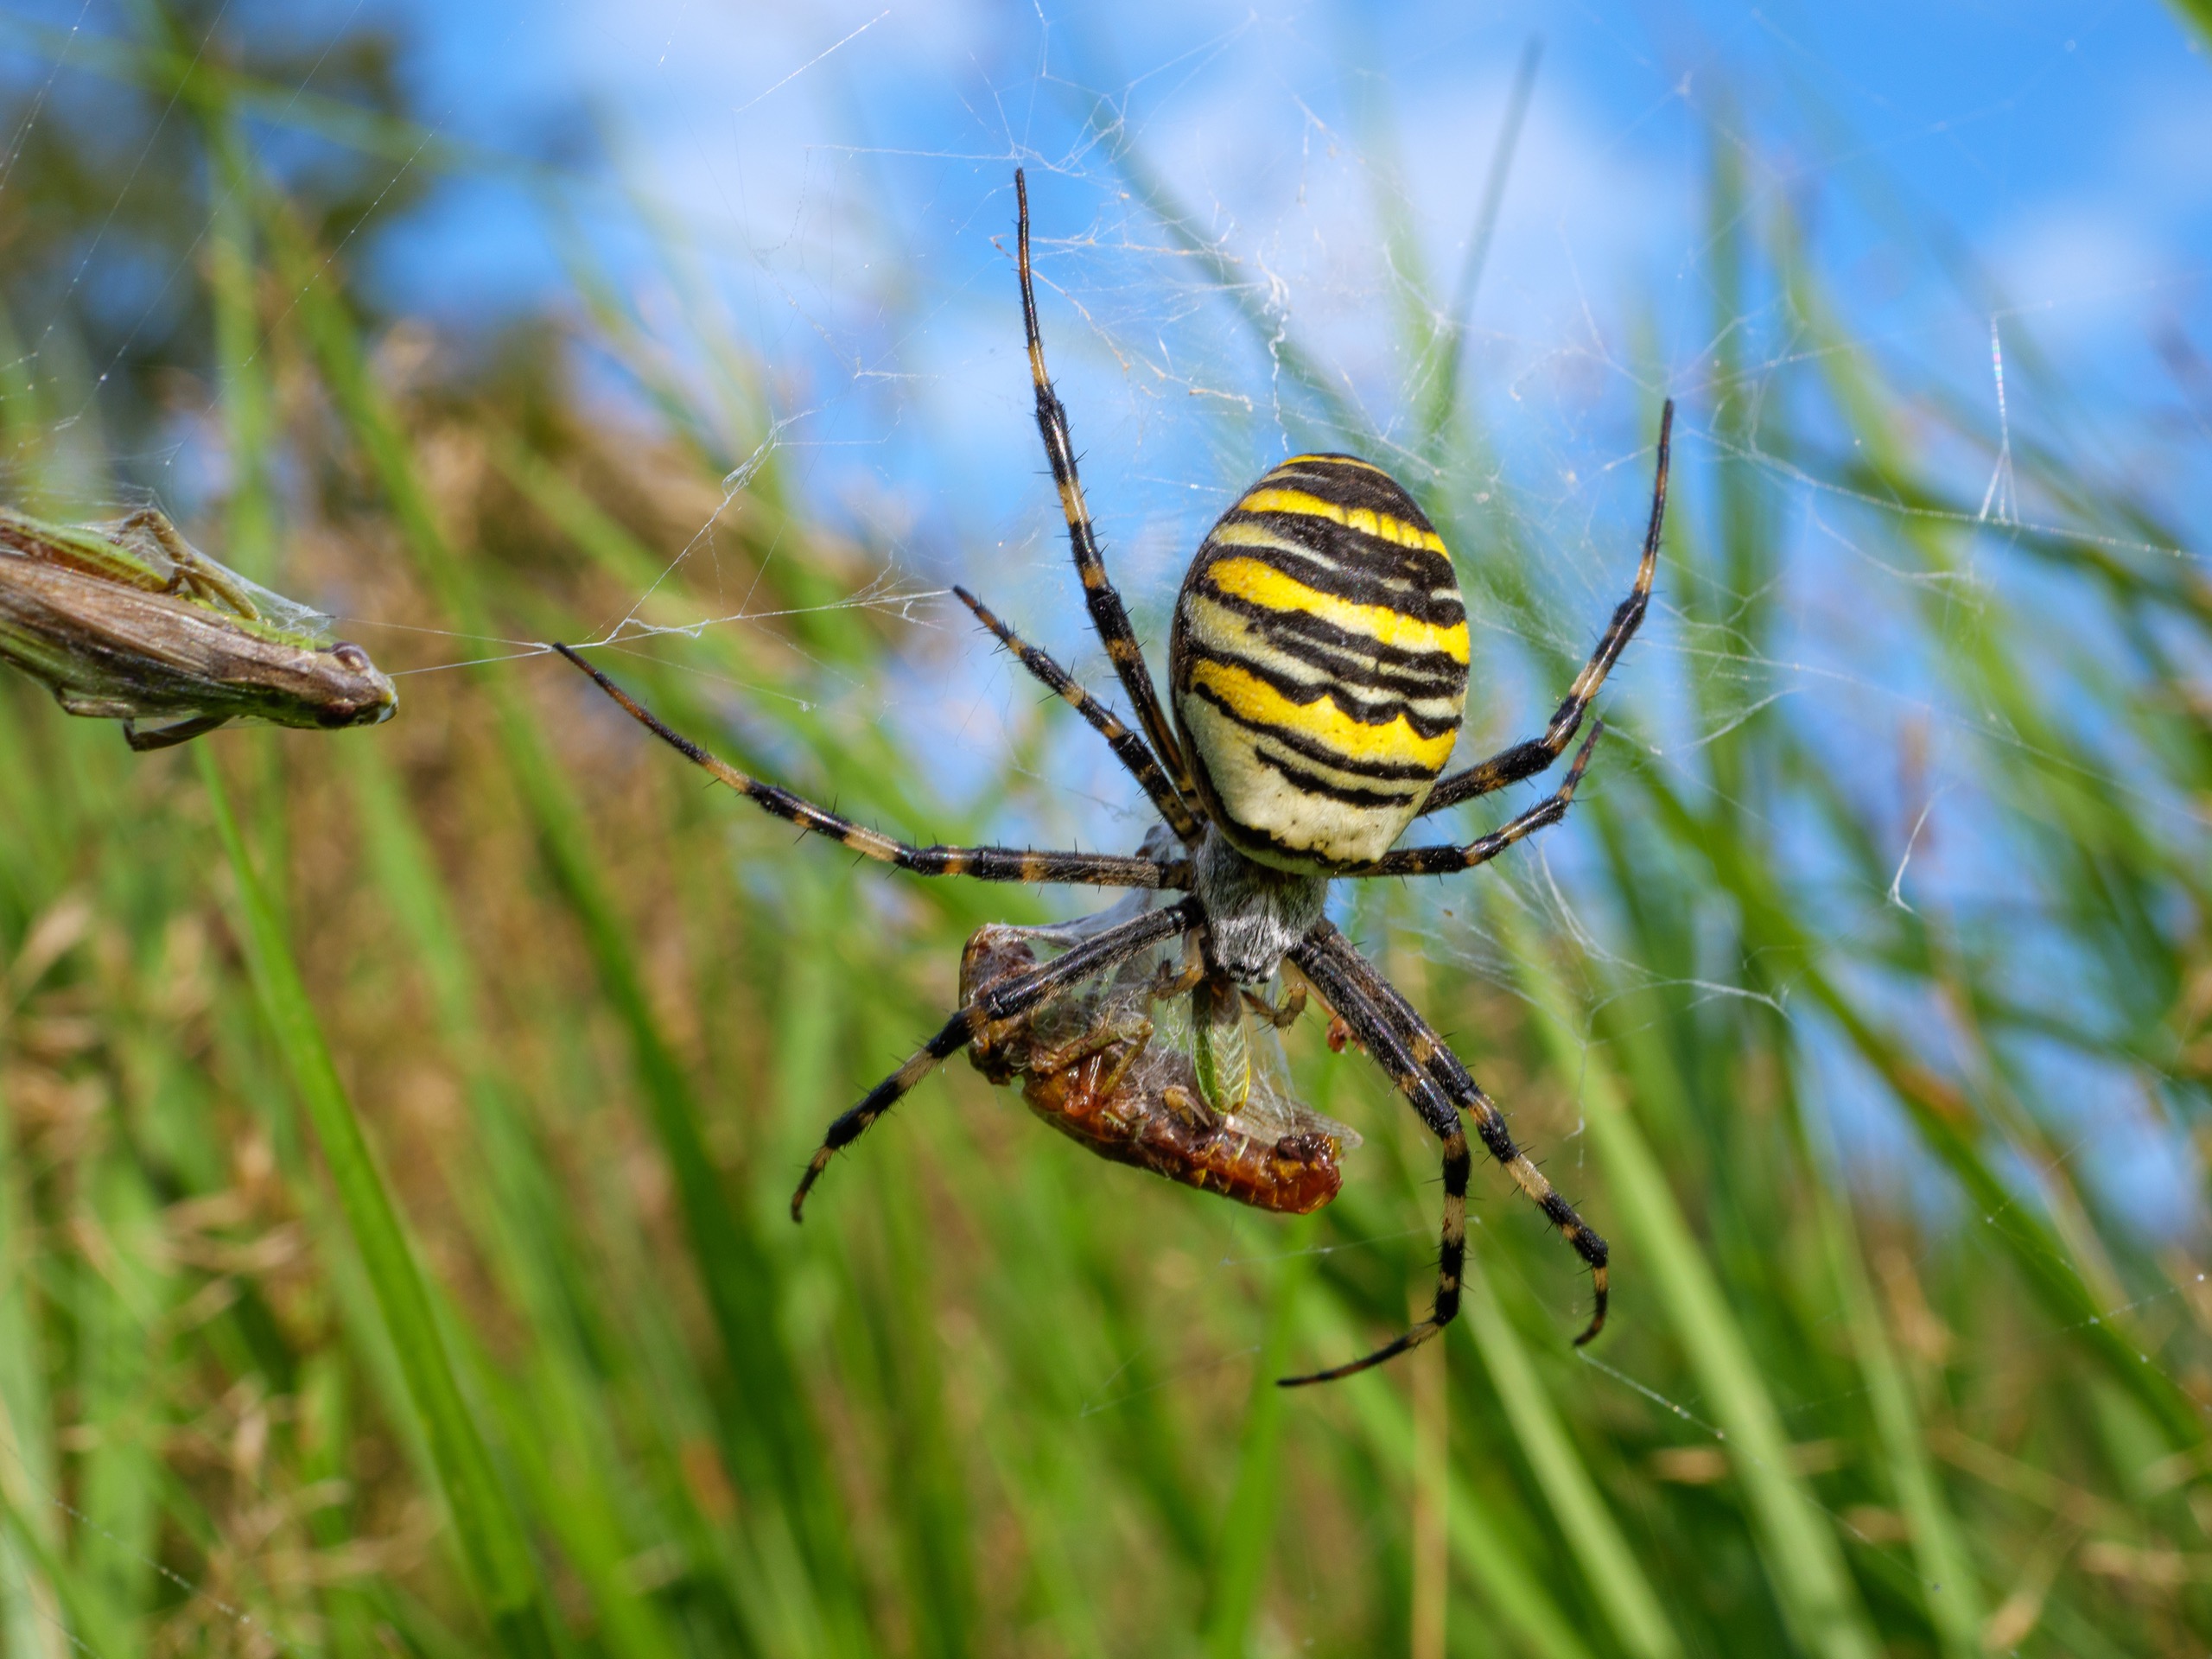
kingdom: Animalia
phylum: Arthropoda
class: Arachnida
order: Araneae
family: Araneidae
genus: Argiope
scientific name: Argiope bruennichi
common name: Hvepseedderkop
